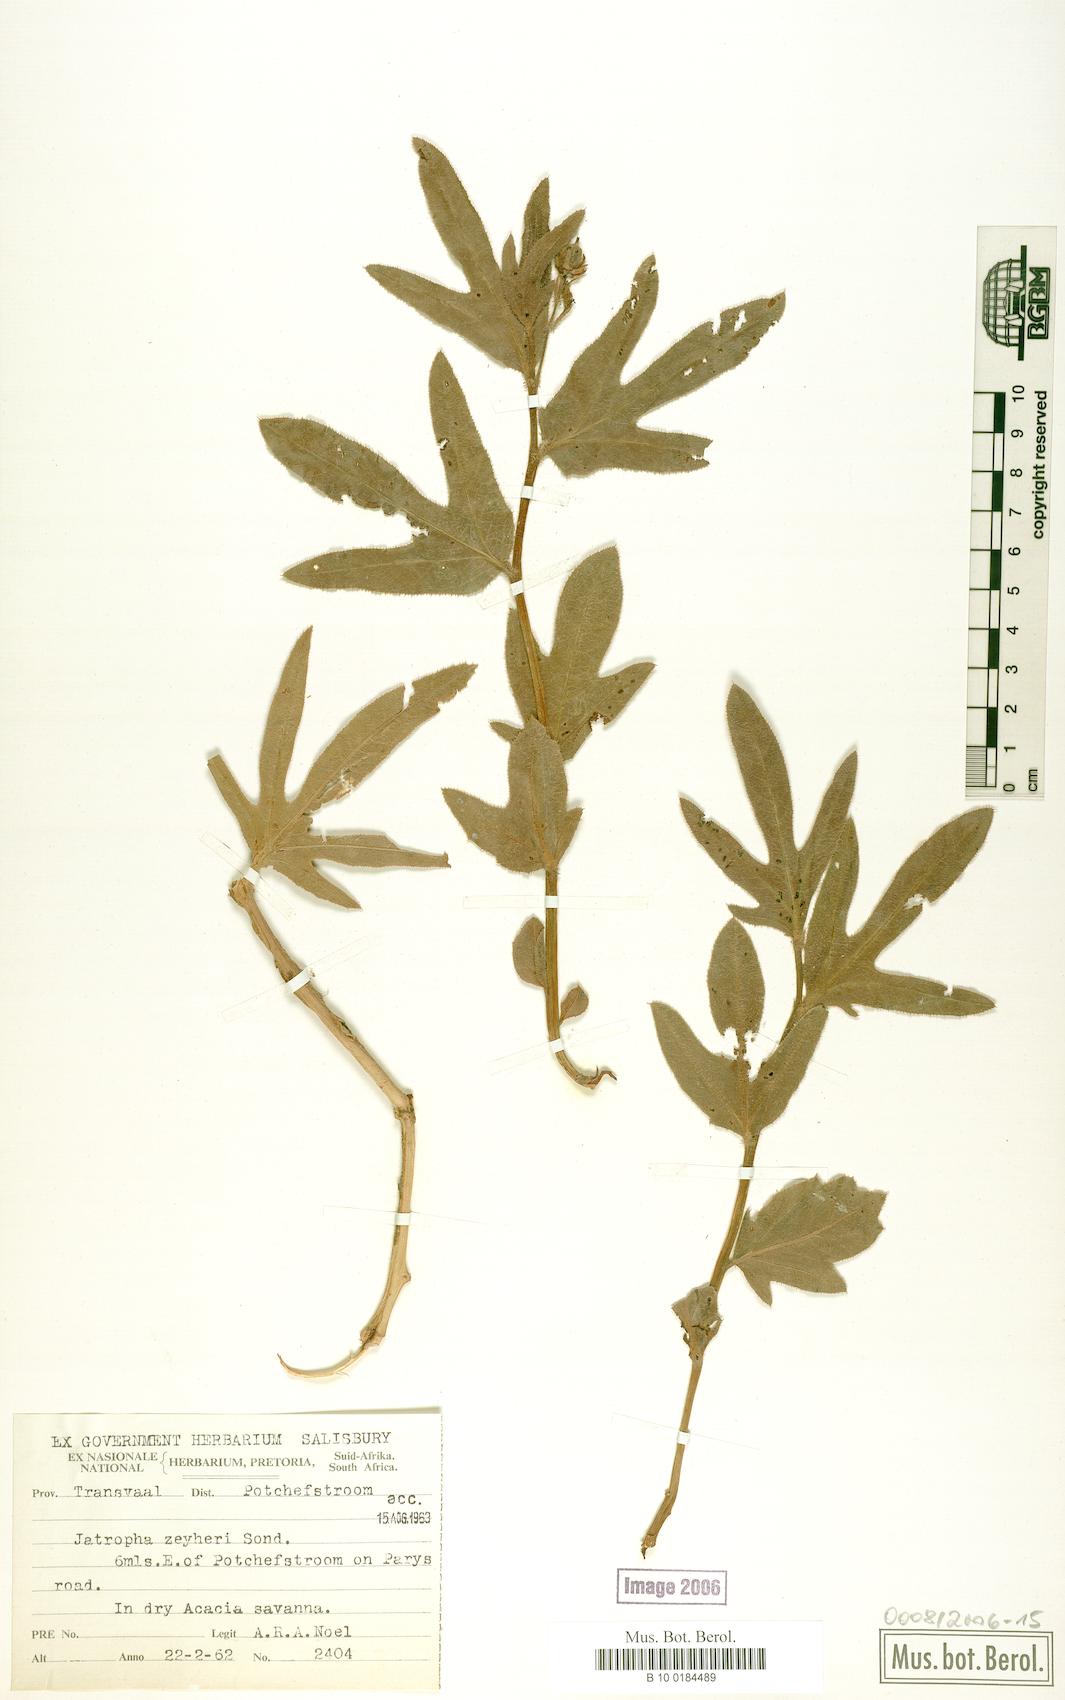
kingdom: Plantae
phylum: Tracheophyta
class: Magnoliopsida
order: Malpighiales
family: Euphorbiaceae
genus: Jatropha
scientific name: Jatropha zeyheri
